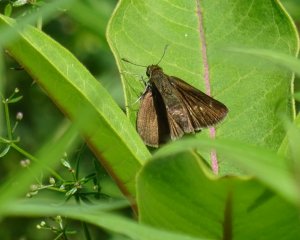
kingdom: Animalia
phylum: Arthropoda
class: Insecta
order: Lepidoptera
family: Hesperiidae
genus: Euphyes
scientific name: Euphyes vestris
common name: Dun Skipper
